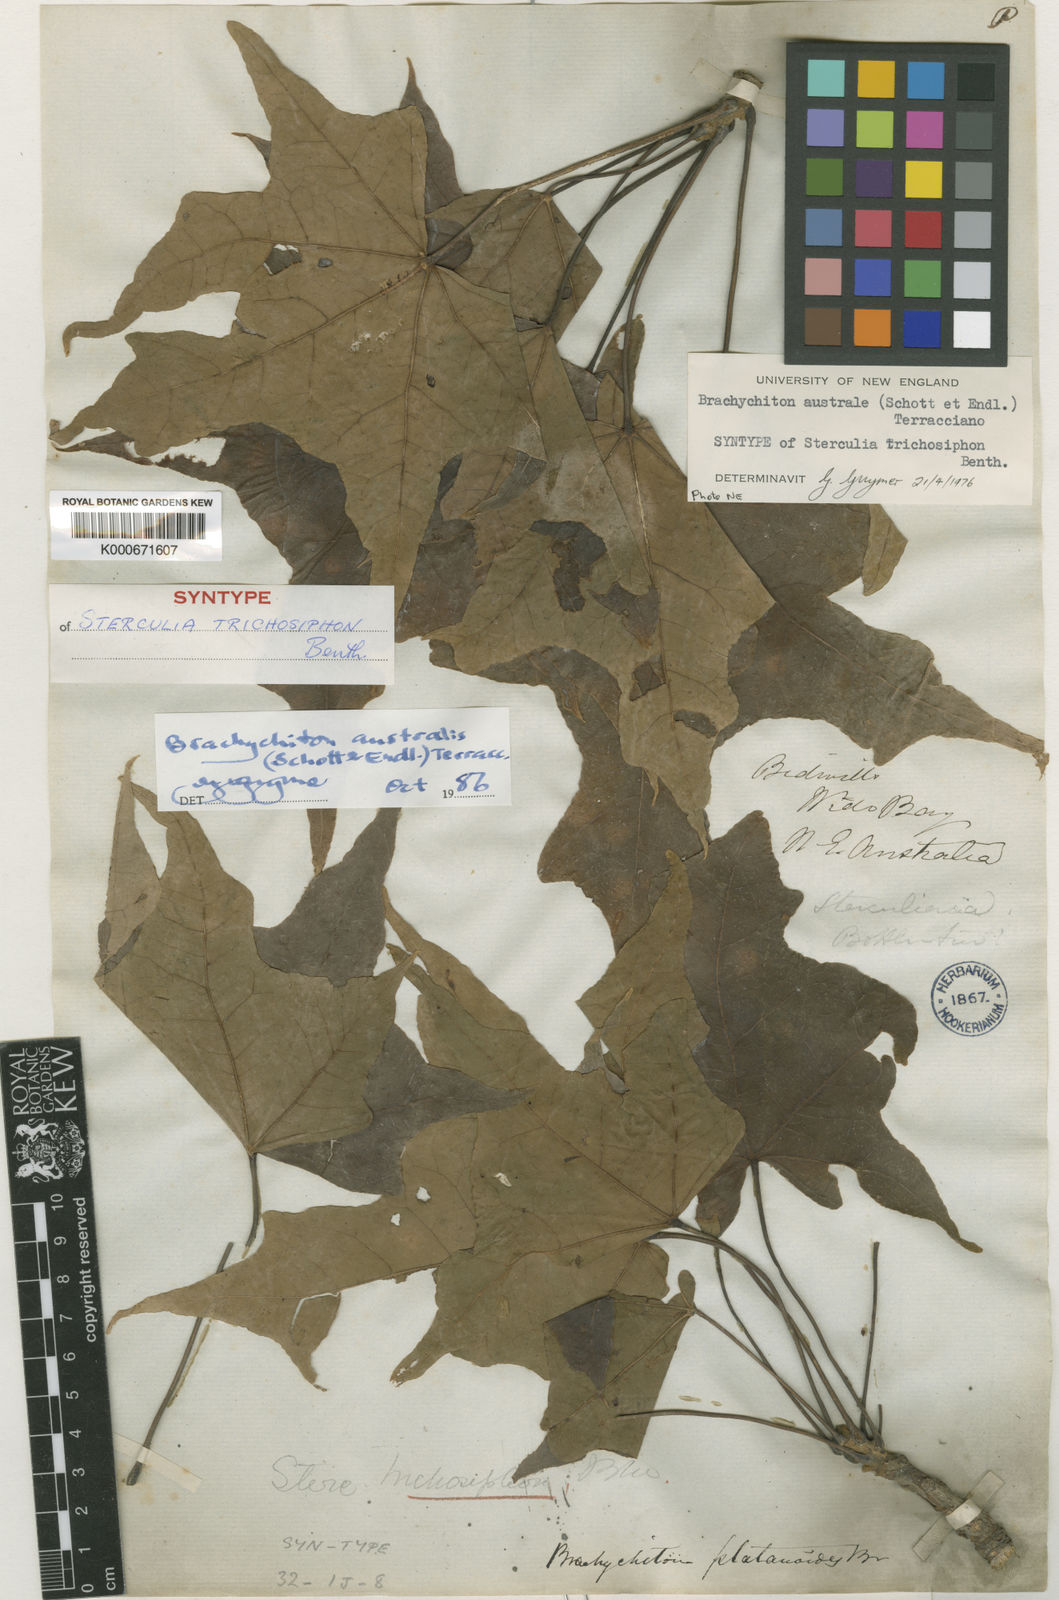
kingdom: Plantae
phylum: Tracheophyta
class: Magnoliopsida
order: Malvales
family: Malvaceae
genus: Brachychiton
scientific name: Brachychiton australis
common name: Large-leaf bottletree
